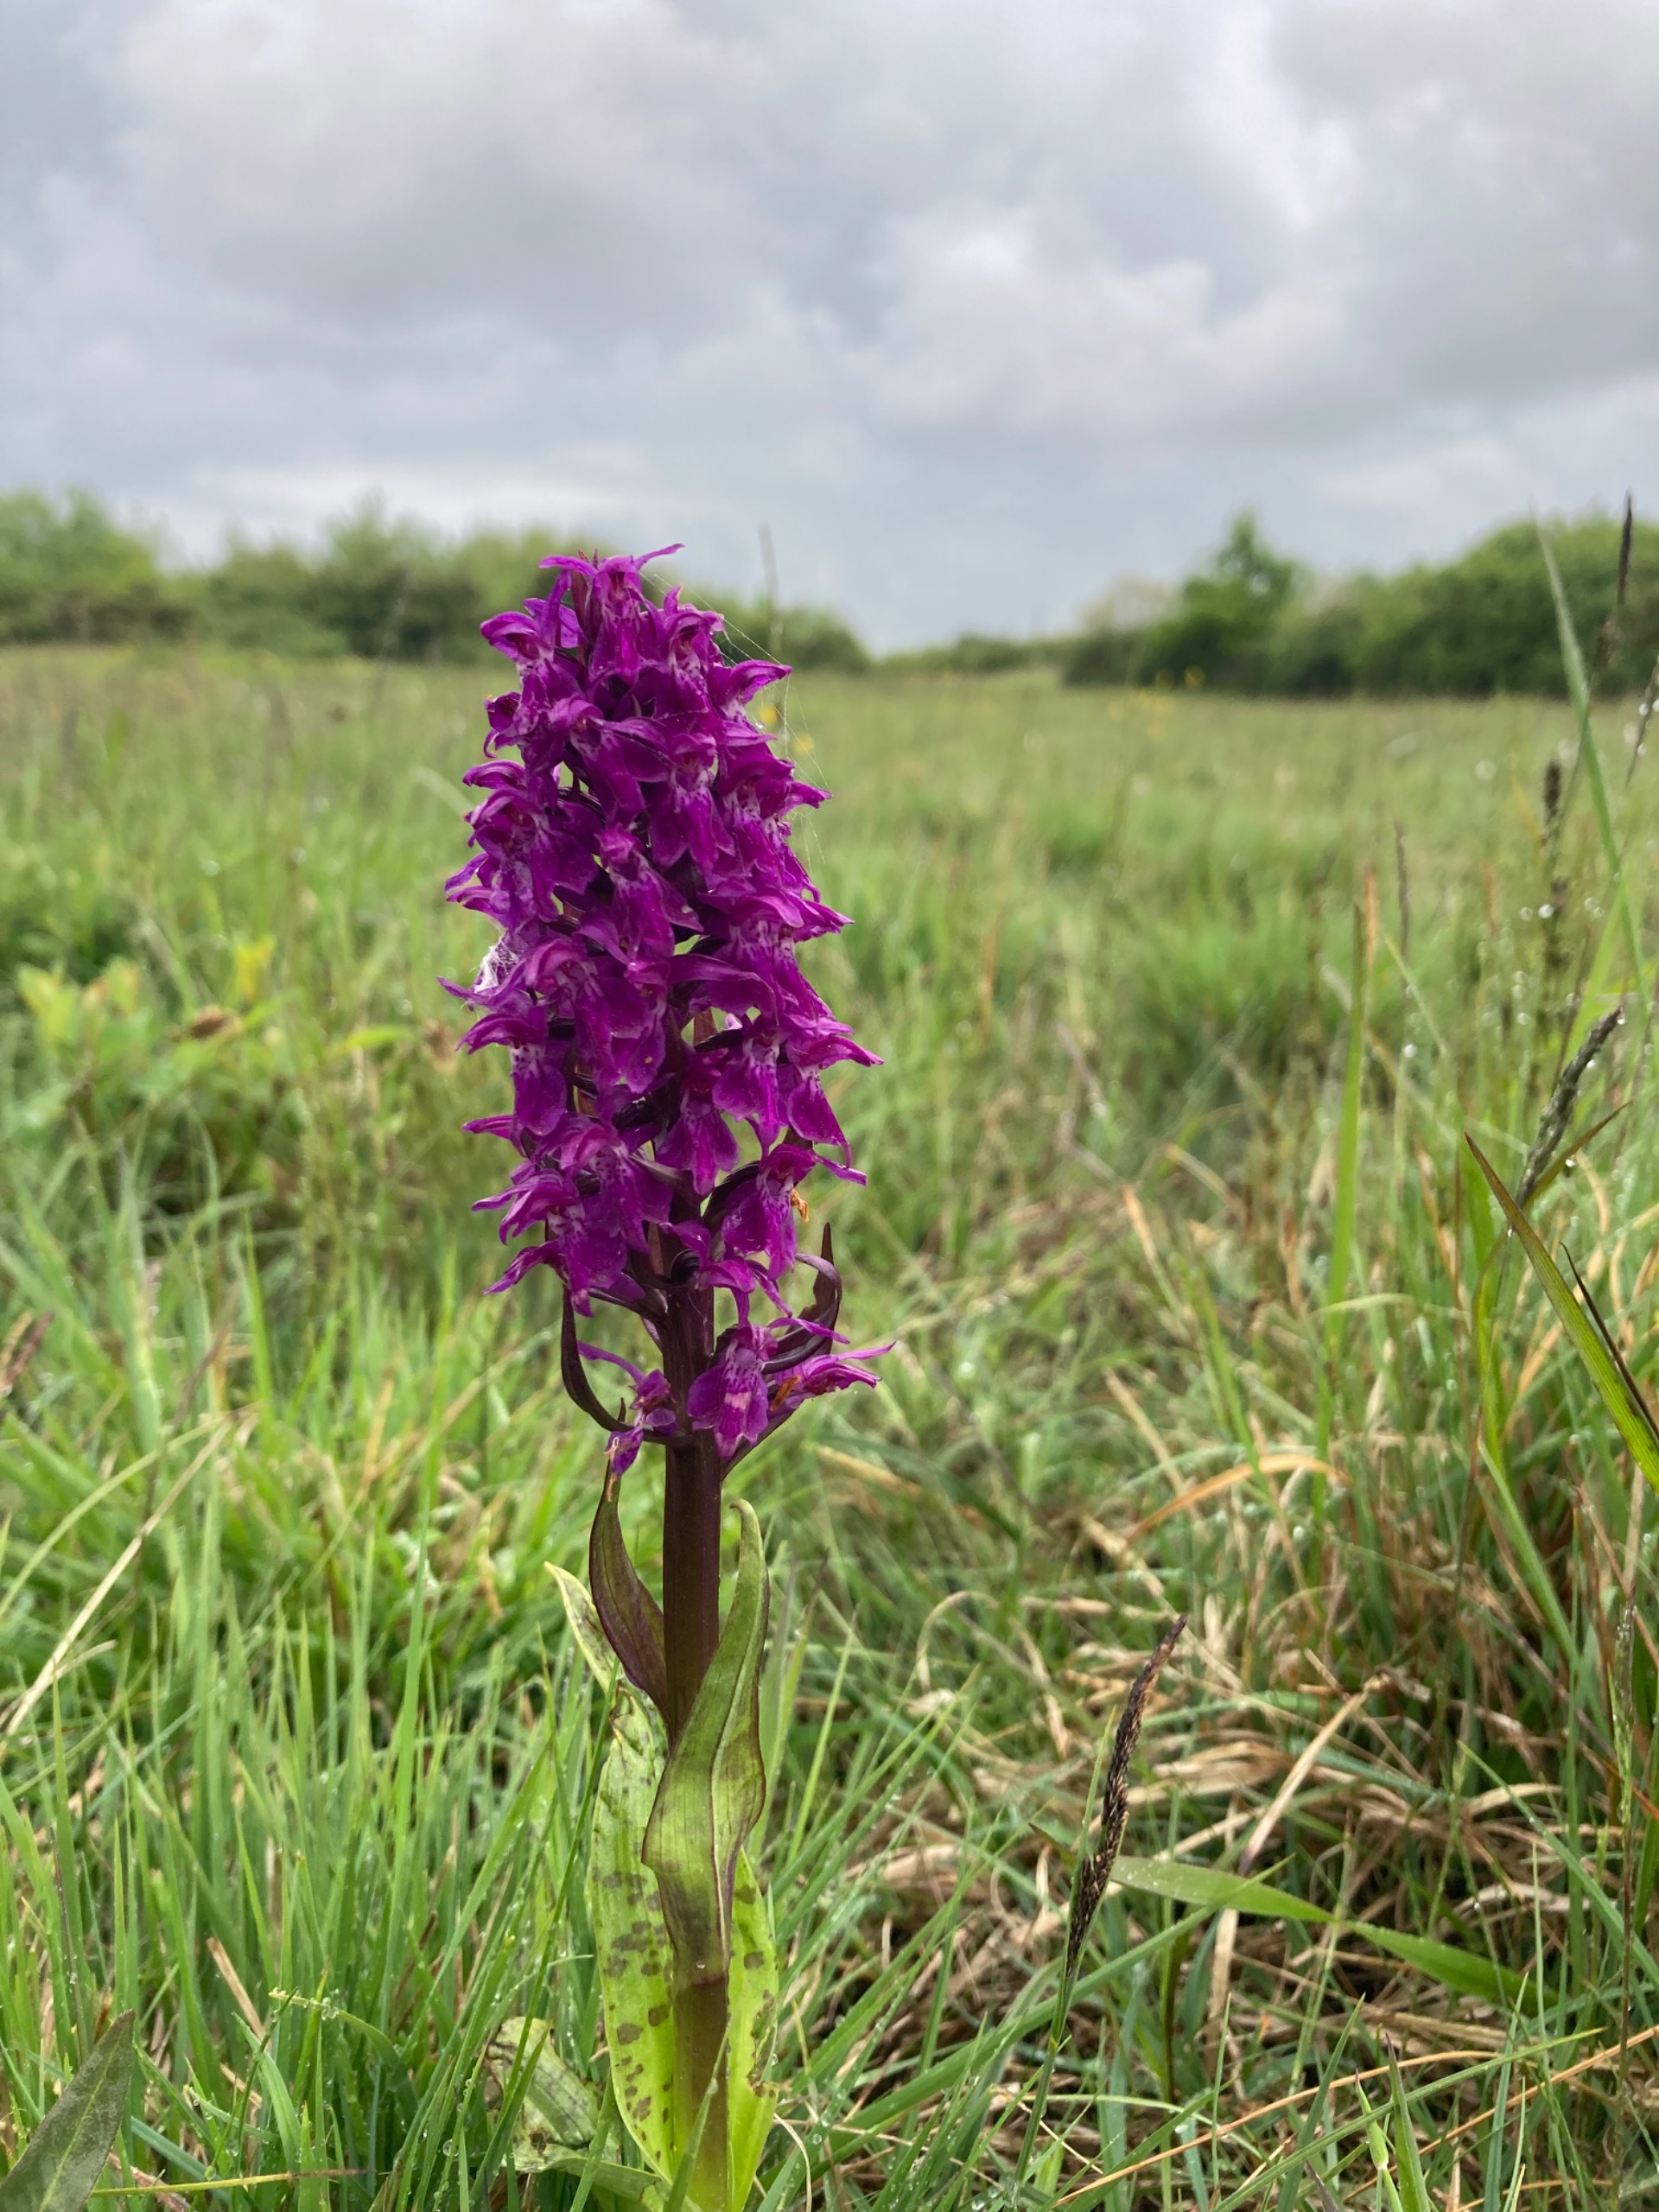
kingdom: Plantae
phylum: Tracheophyta
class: Liliopsida
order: Asparagales
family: Orchidaceae
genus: Dactylorhiza
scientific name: Dactylorhiza majalis
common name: Maj-gøgeurt
